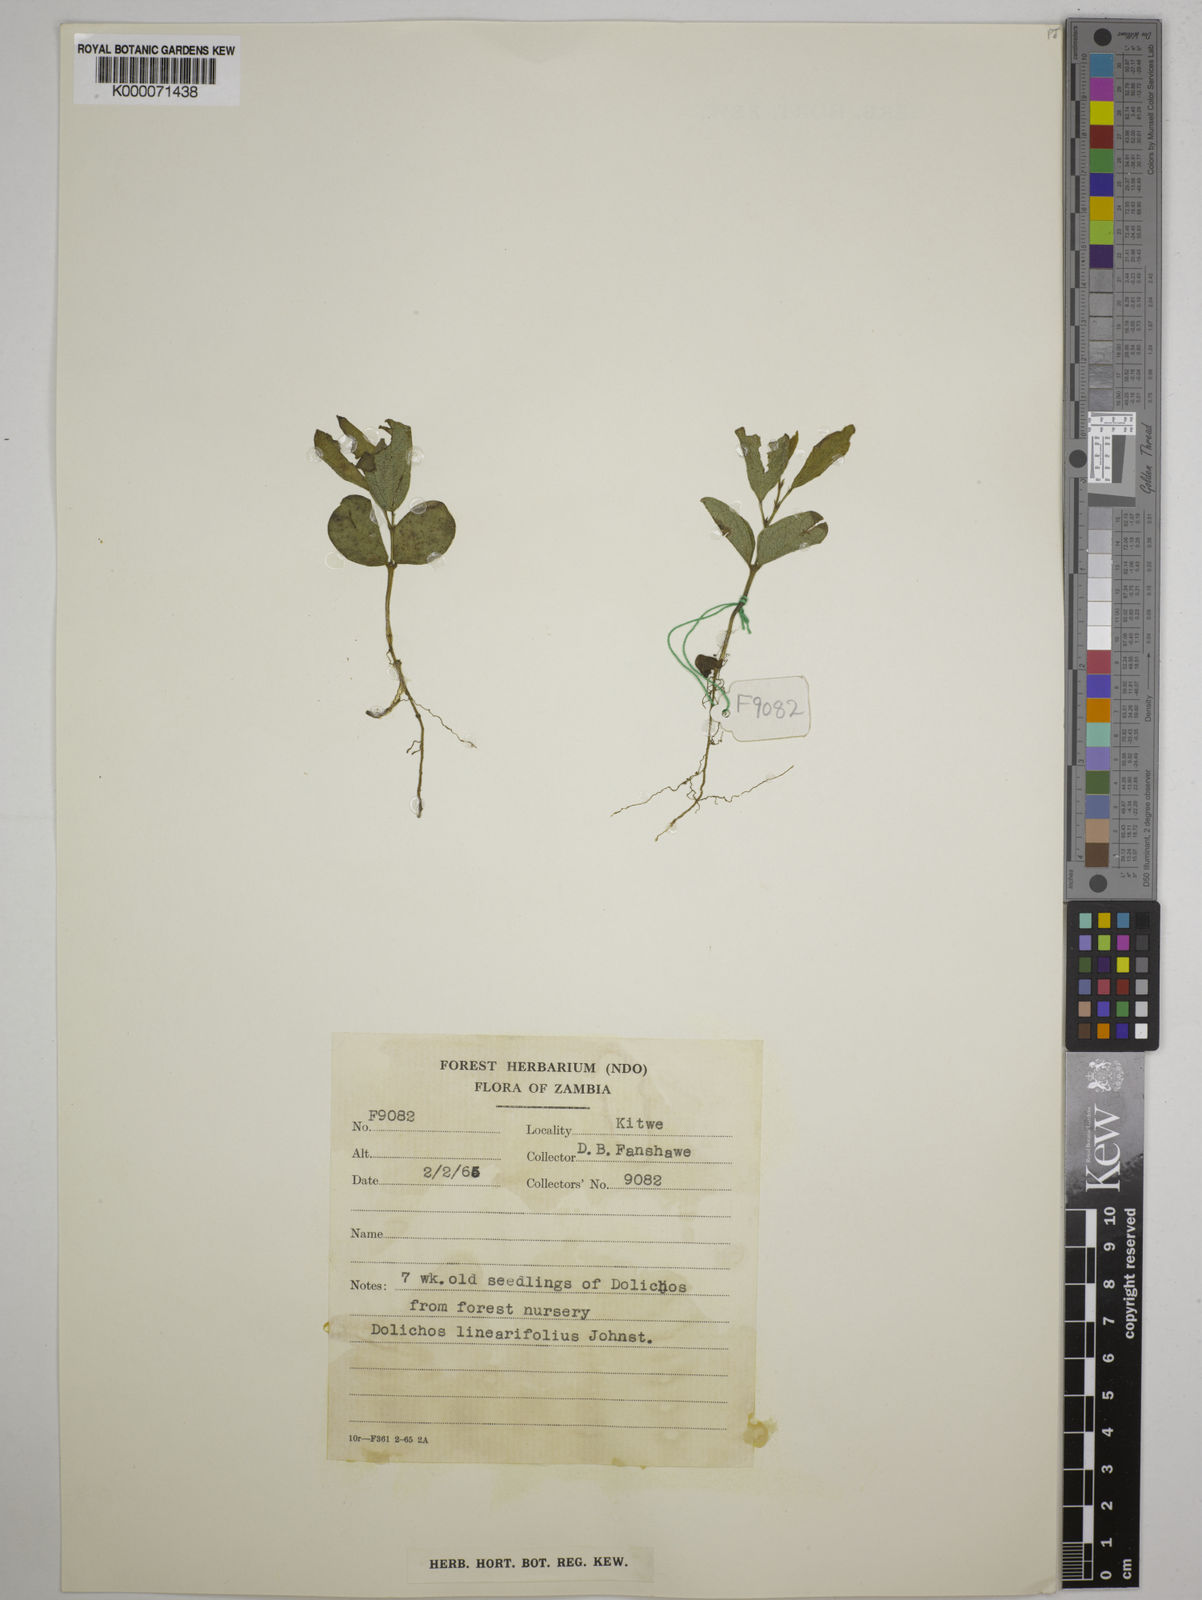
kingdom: Plantae
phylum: Tracheophyta
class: Magnoliopsida
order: Fabales
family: Fabaceae
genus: Dolichos
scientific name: Dolichos linearifolius
